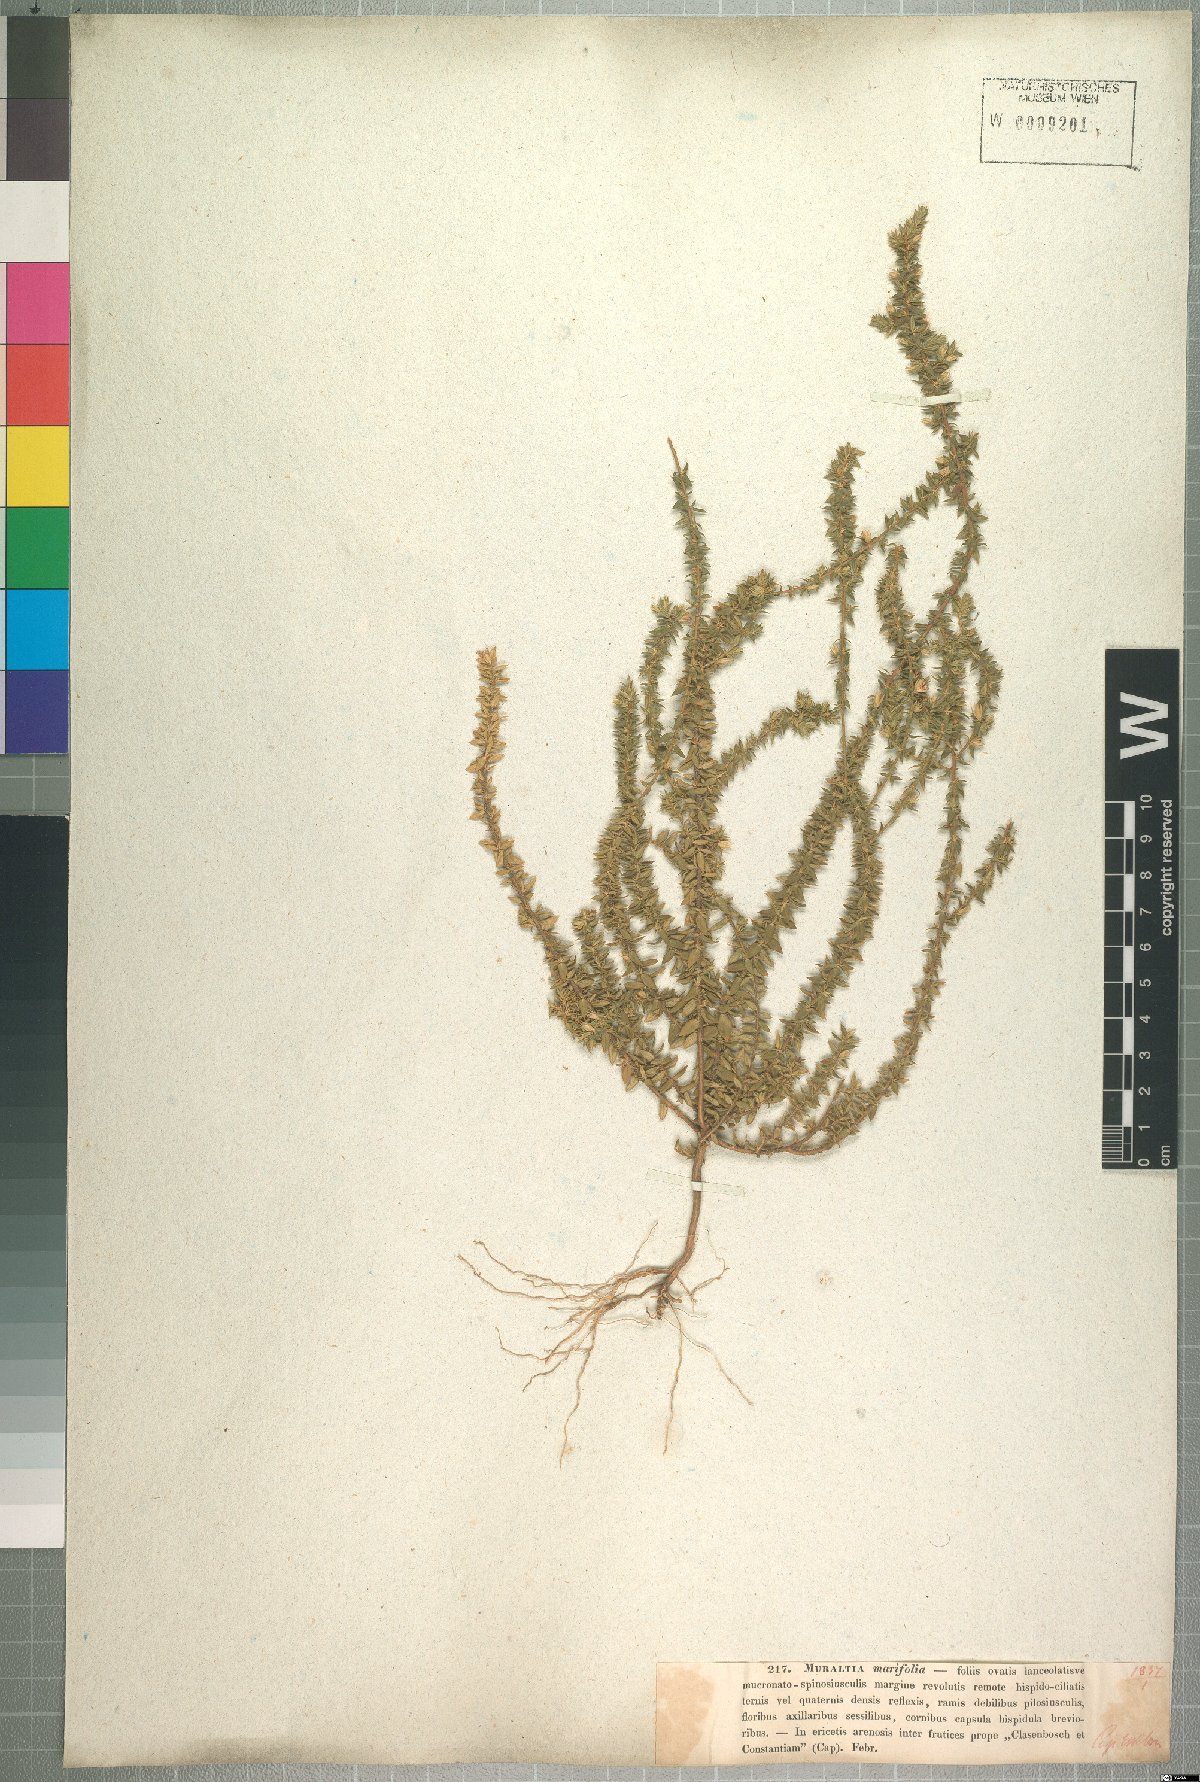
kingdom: Plantae
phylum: Tracheophyta
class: Magnoliopsida
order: Fabales
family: Polygalaceae
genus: Muraltia
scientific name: Muraltia serpylloides
